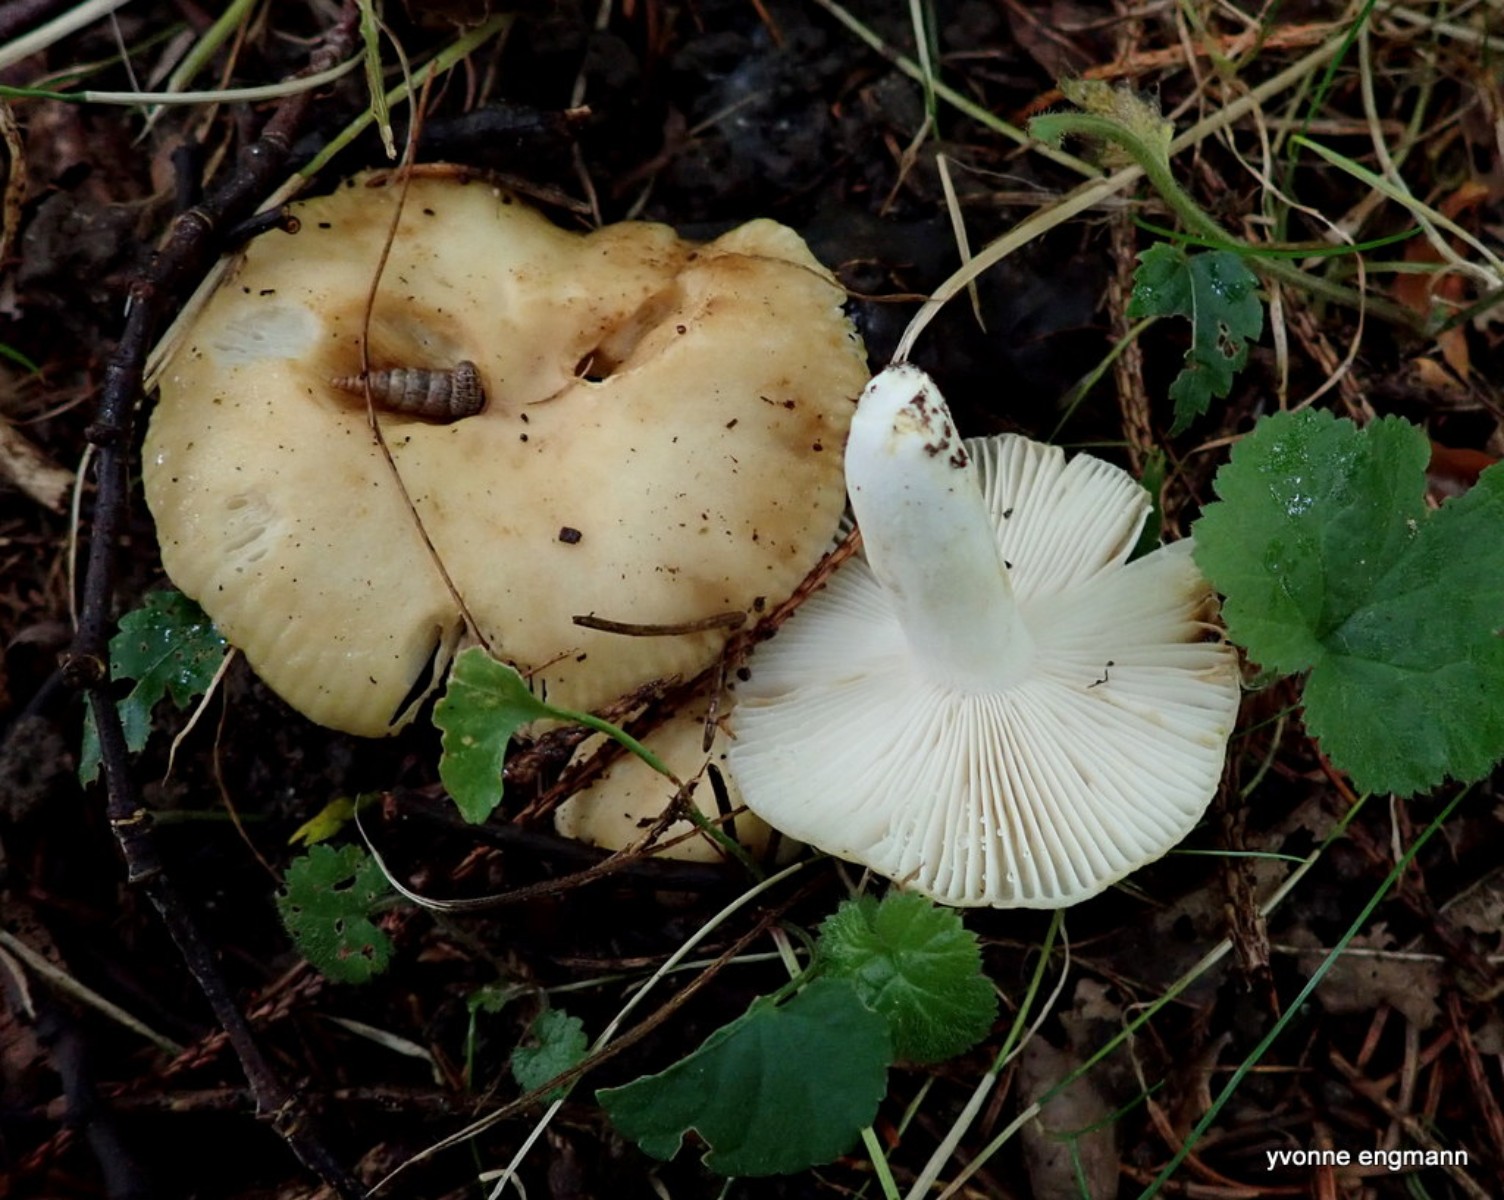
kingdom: Fungi
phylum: Basidiomycota
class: Agaricomycetes
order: Russulales
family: Russulaceae
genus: Russula
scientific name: Russula farinipes
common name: gul kam-skørhat
